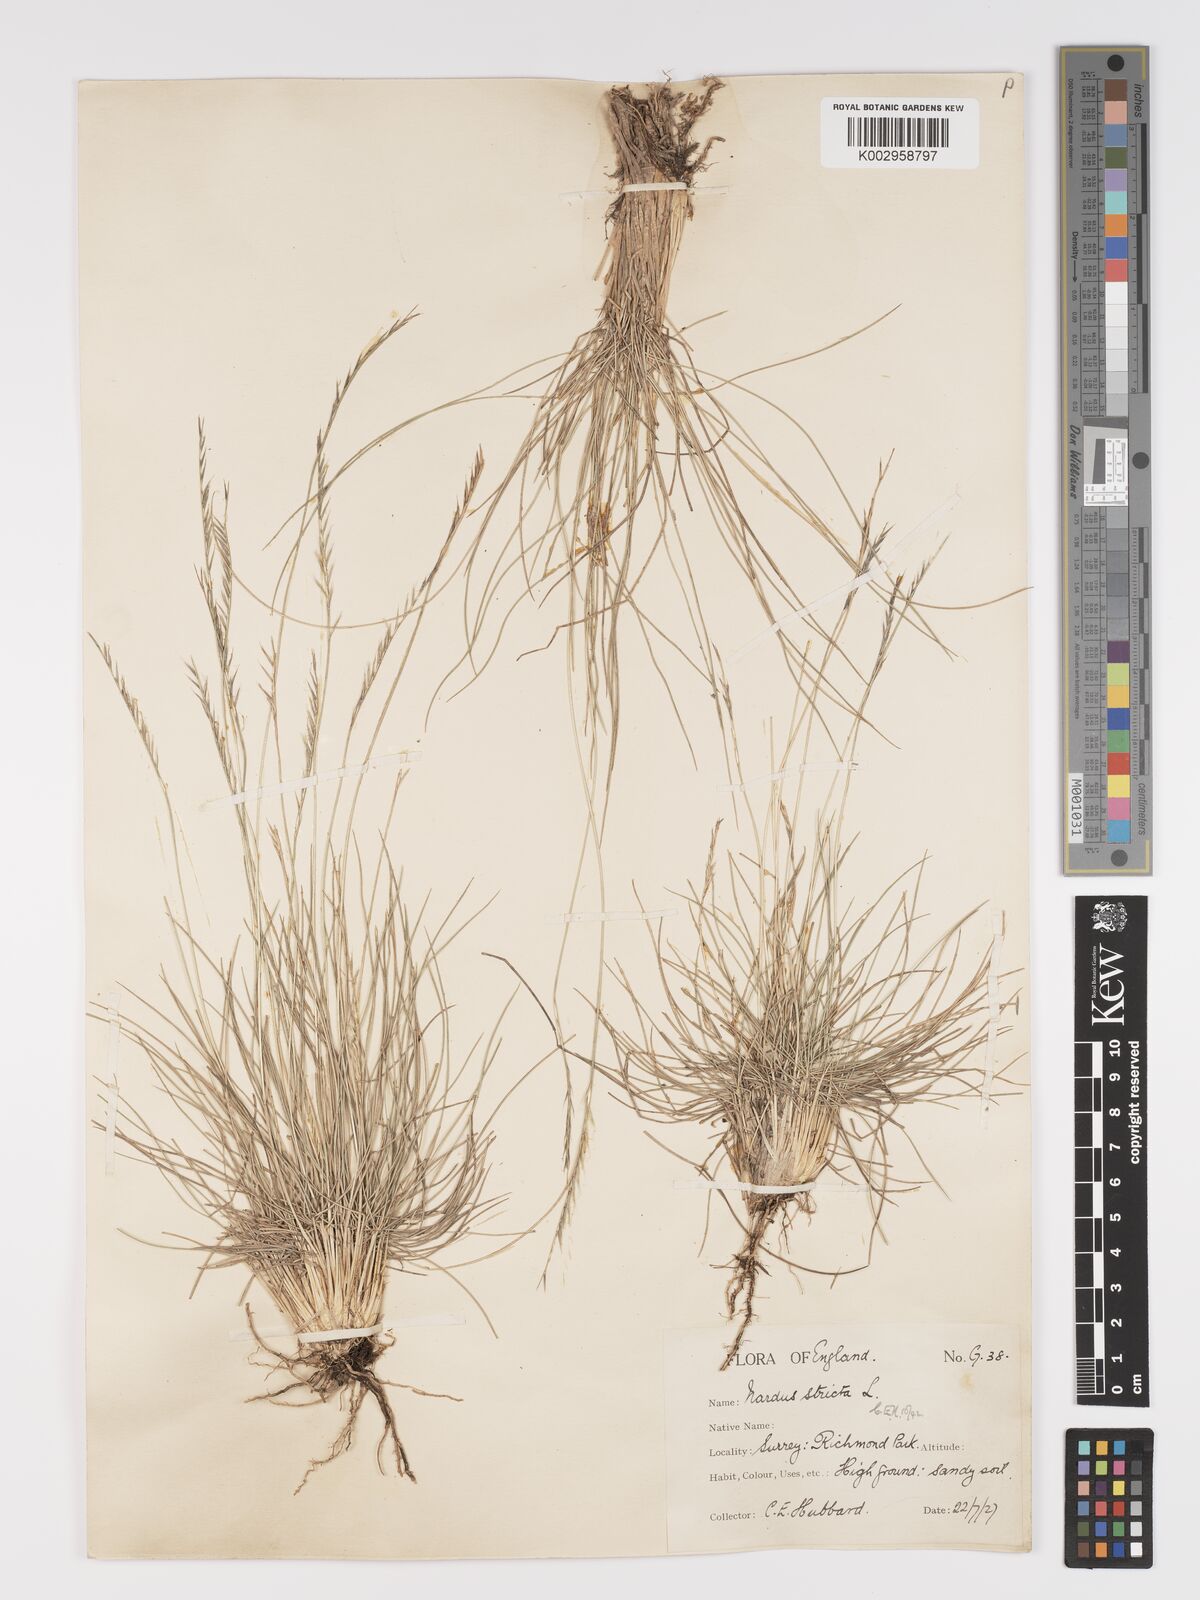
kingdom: Plantae
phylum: Tracheophyta
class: Liliopsida
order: Poales
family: Poaceae
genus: Nardus
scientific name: Nardus stricta
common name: Mat-grass
